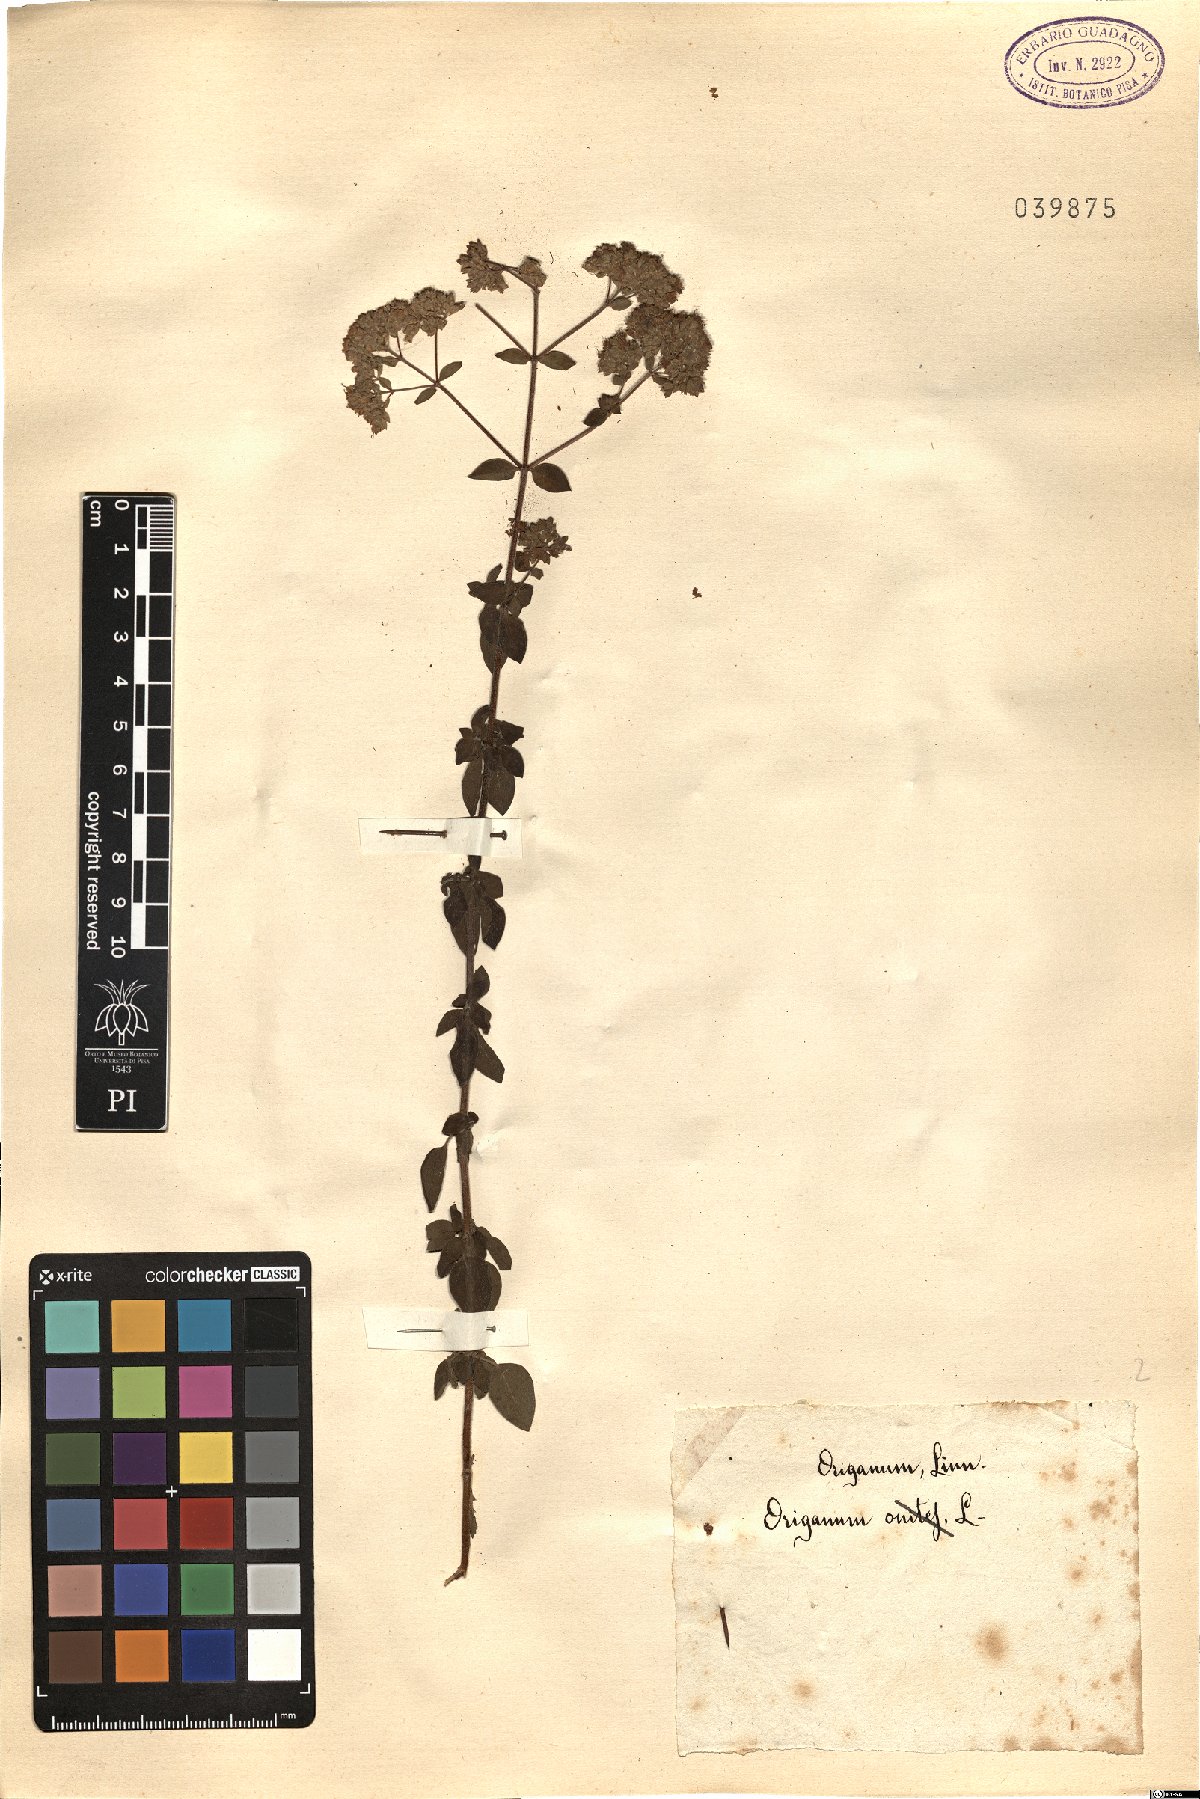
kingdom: Plantae
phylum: Tracheophyta
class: Magnoliopsida
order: Lamiales
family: Lamiaceae
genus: Origanum
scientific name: Origanum
